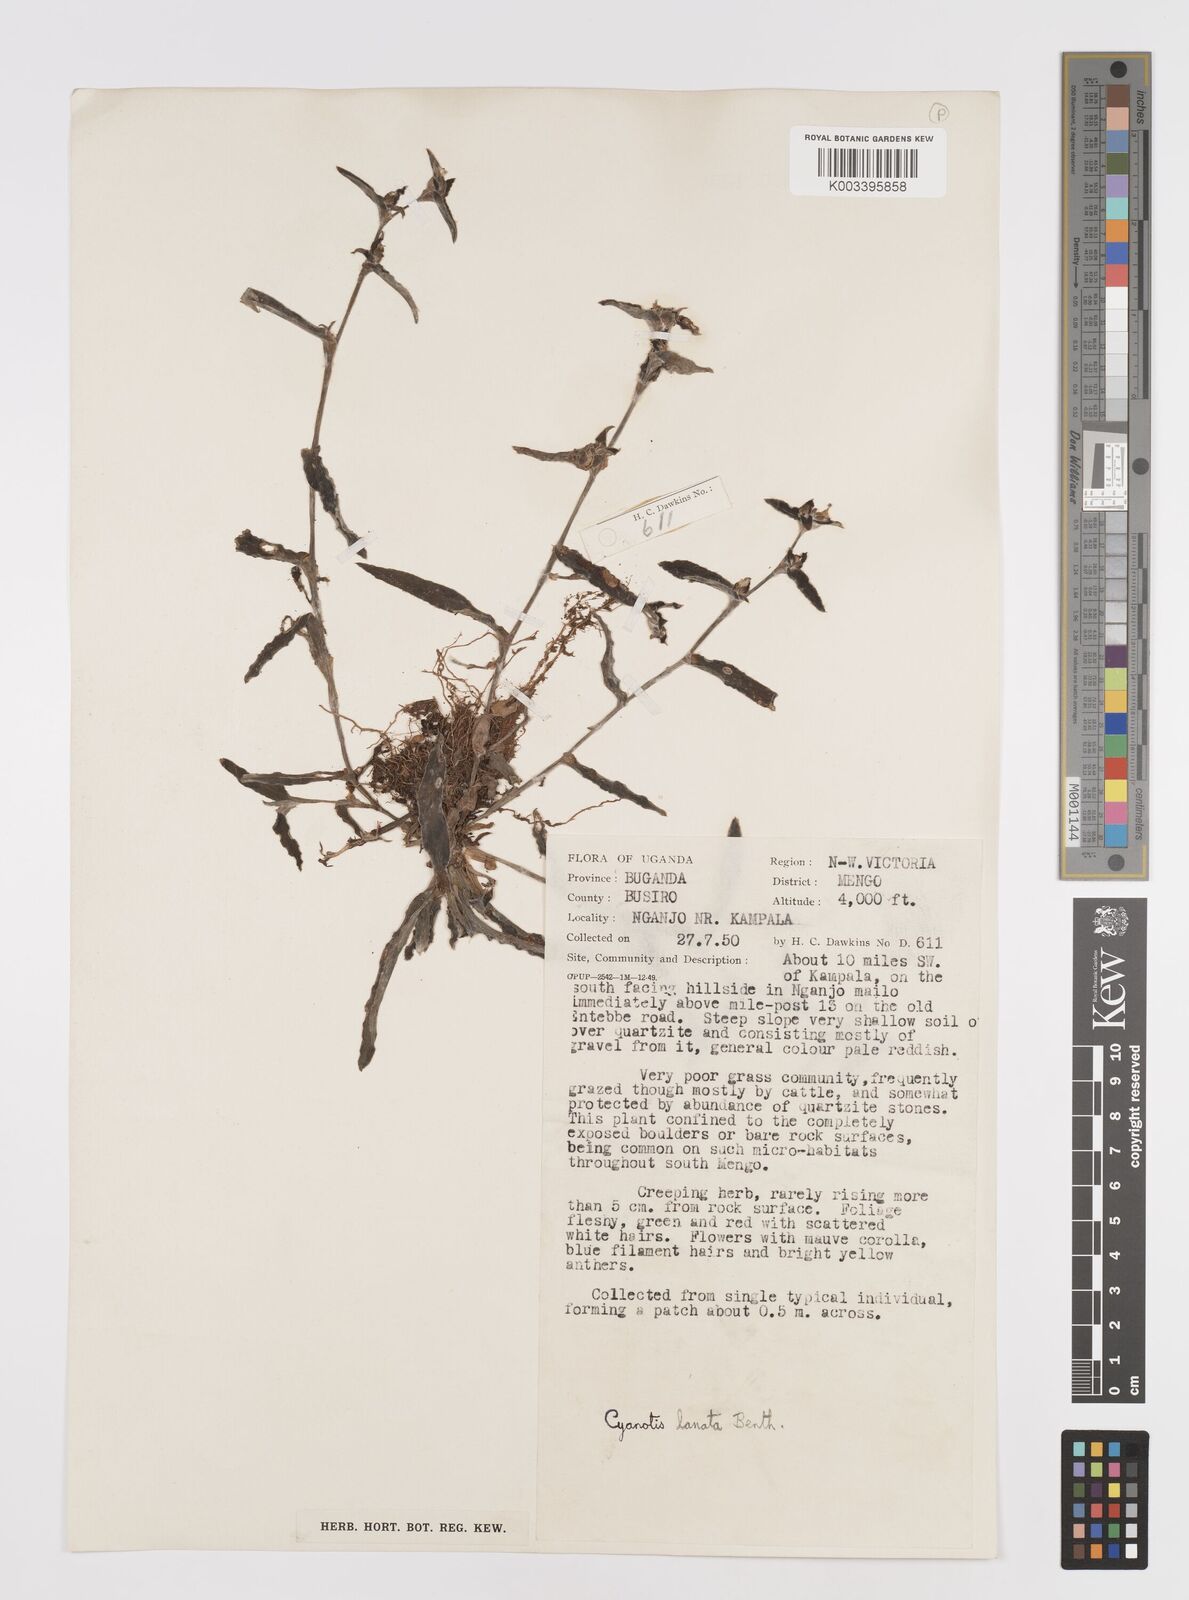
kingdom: Plantae
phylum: Tracheophyta
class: Liliopsida
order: Commelinales
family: Commelinaceae
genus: Cyanotis
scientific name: Cyanotis lanata
